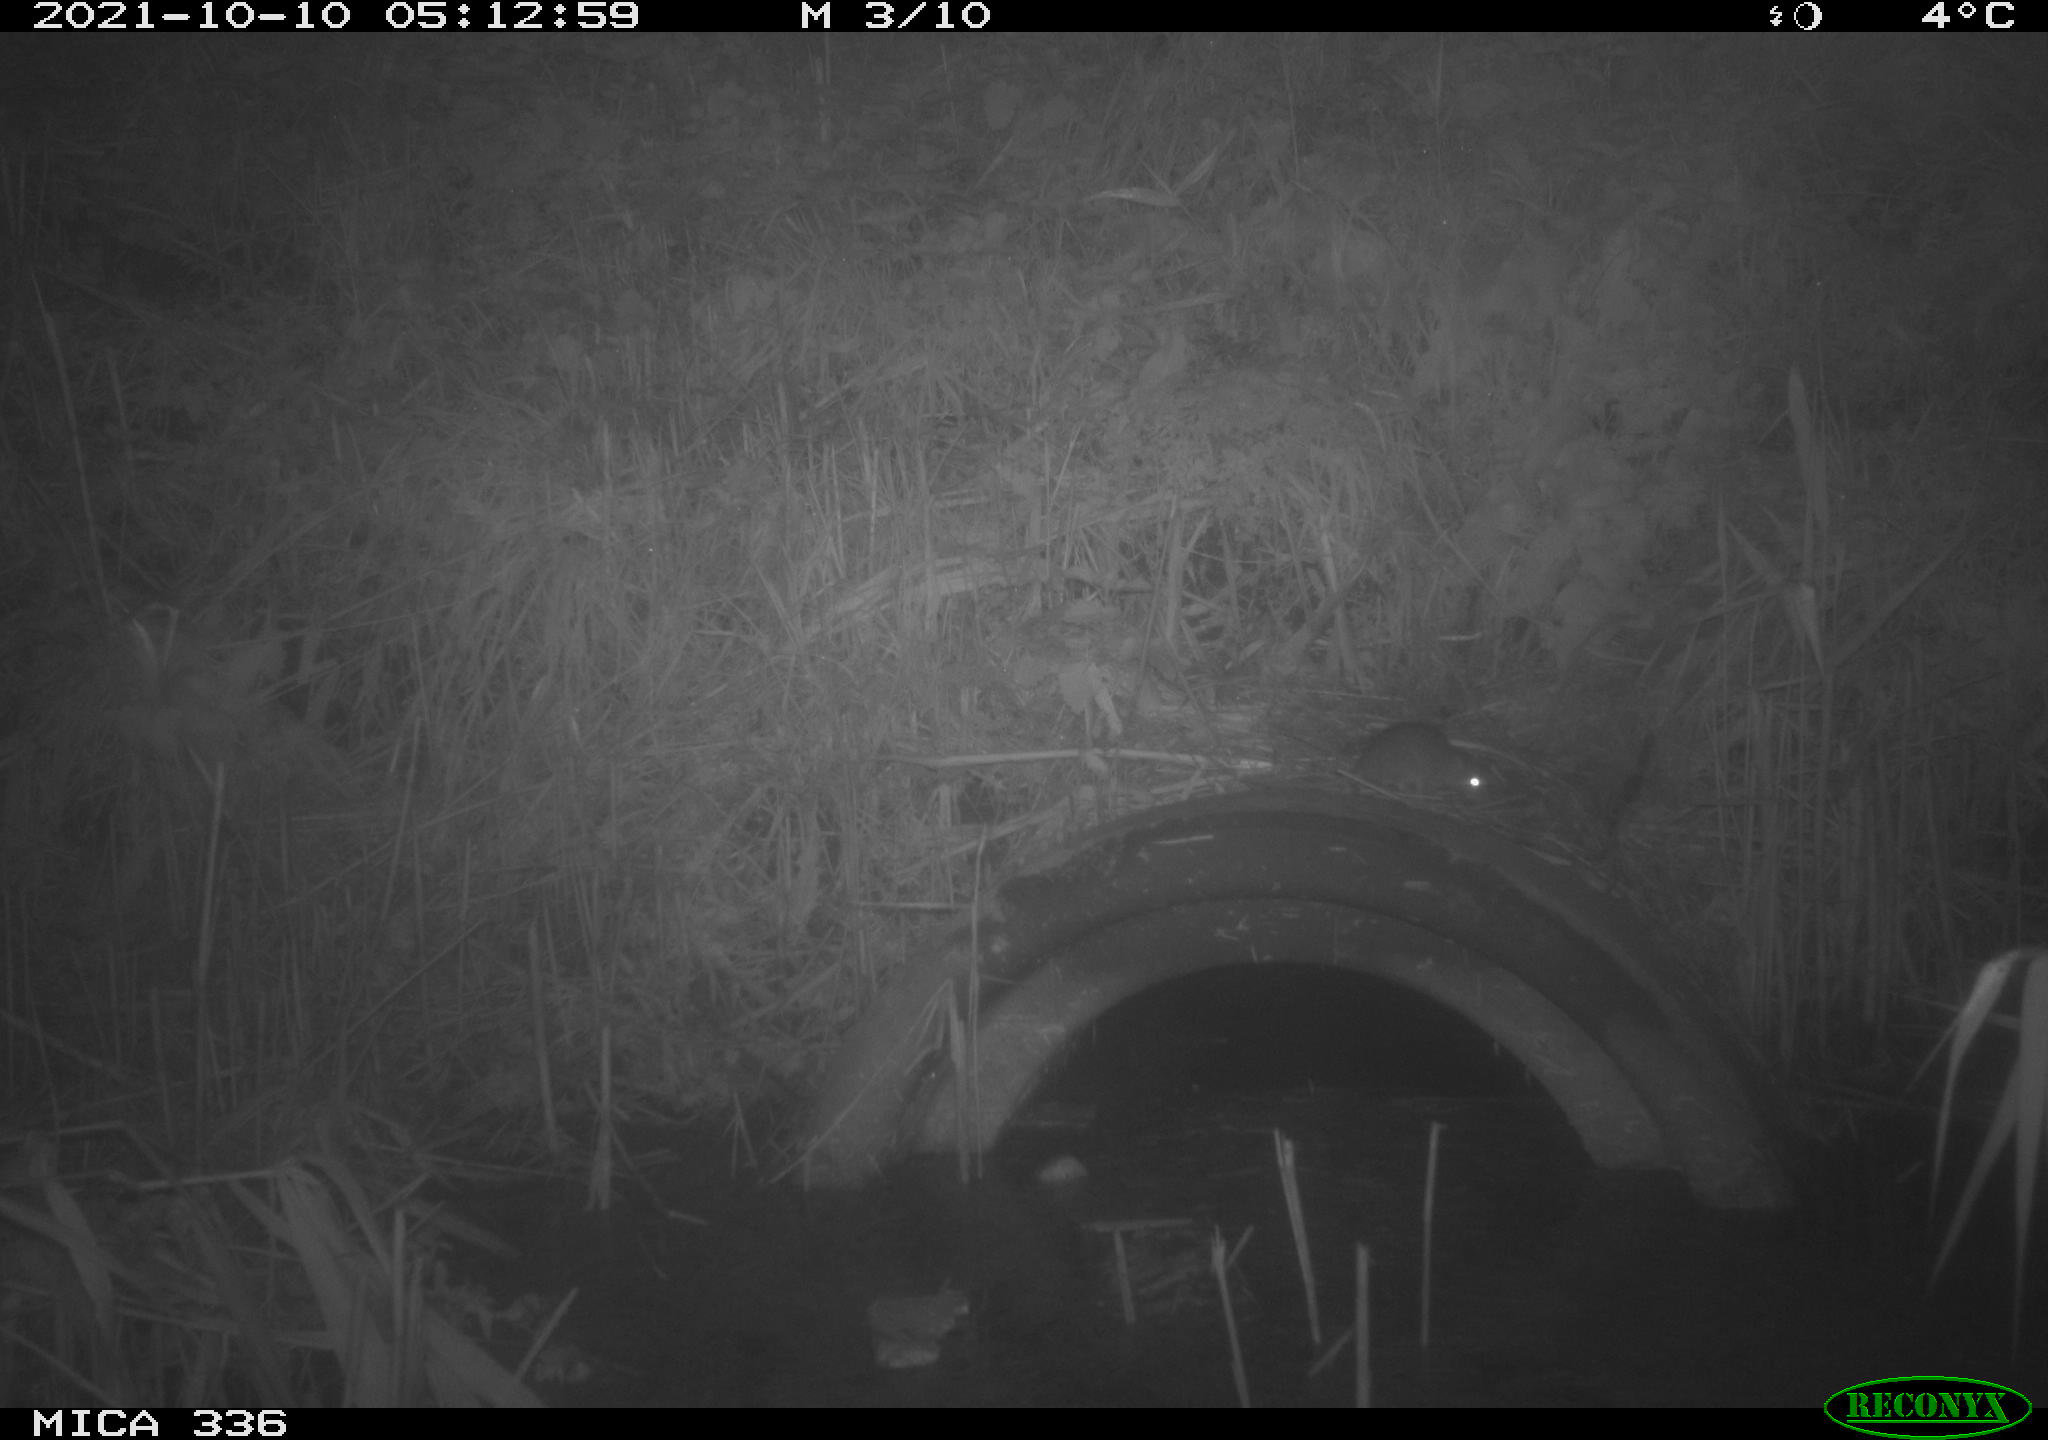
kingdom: Animalia
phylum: Chordata
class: Mammalia
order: Rodentia
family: Muridae
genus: Rattus
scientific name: Rattus norvegicus
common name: Brown rat
